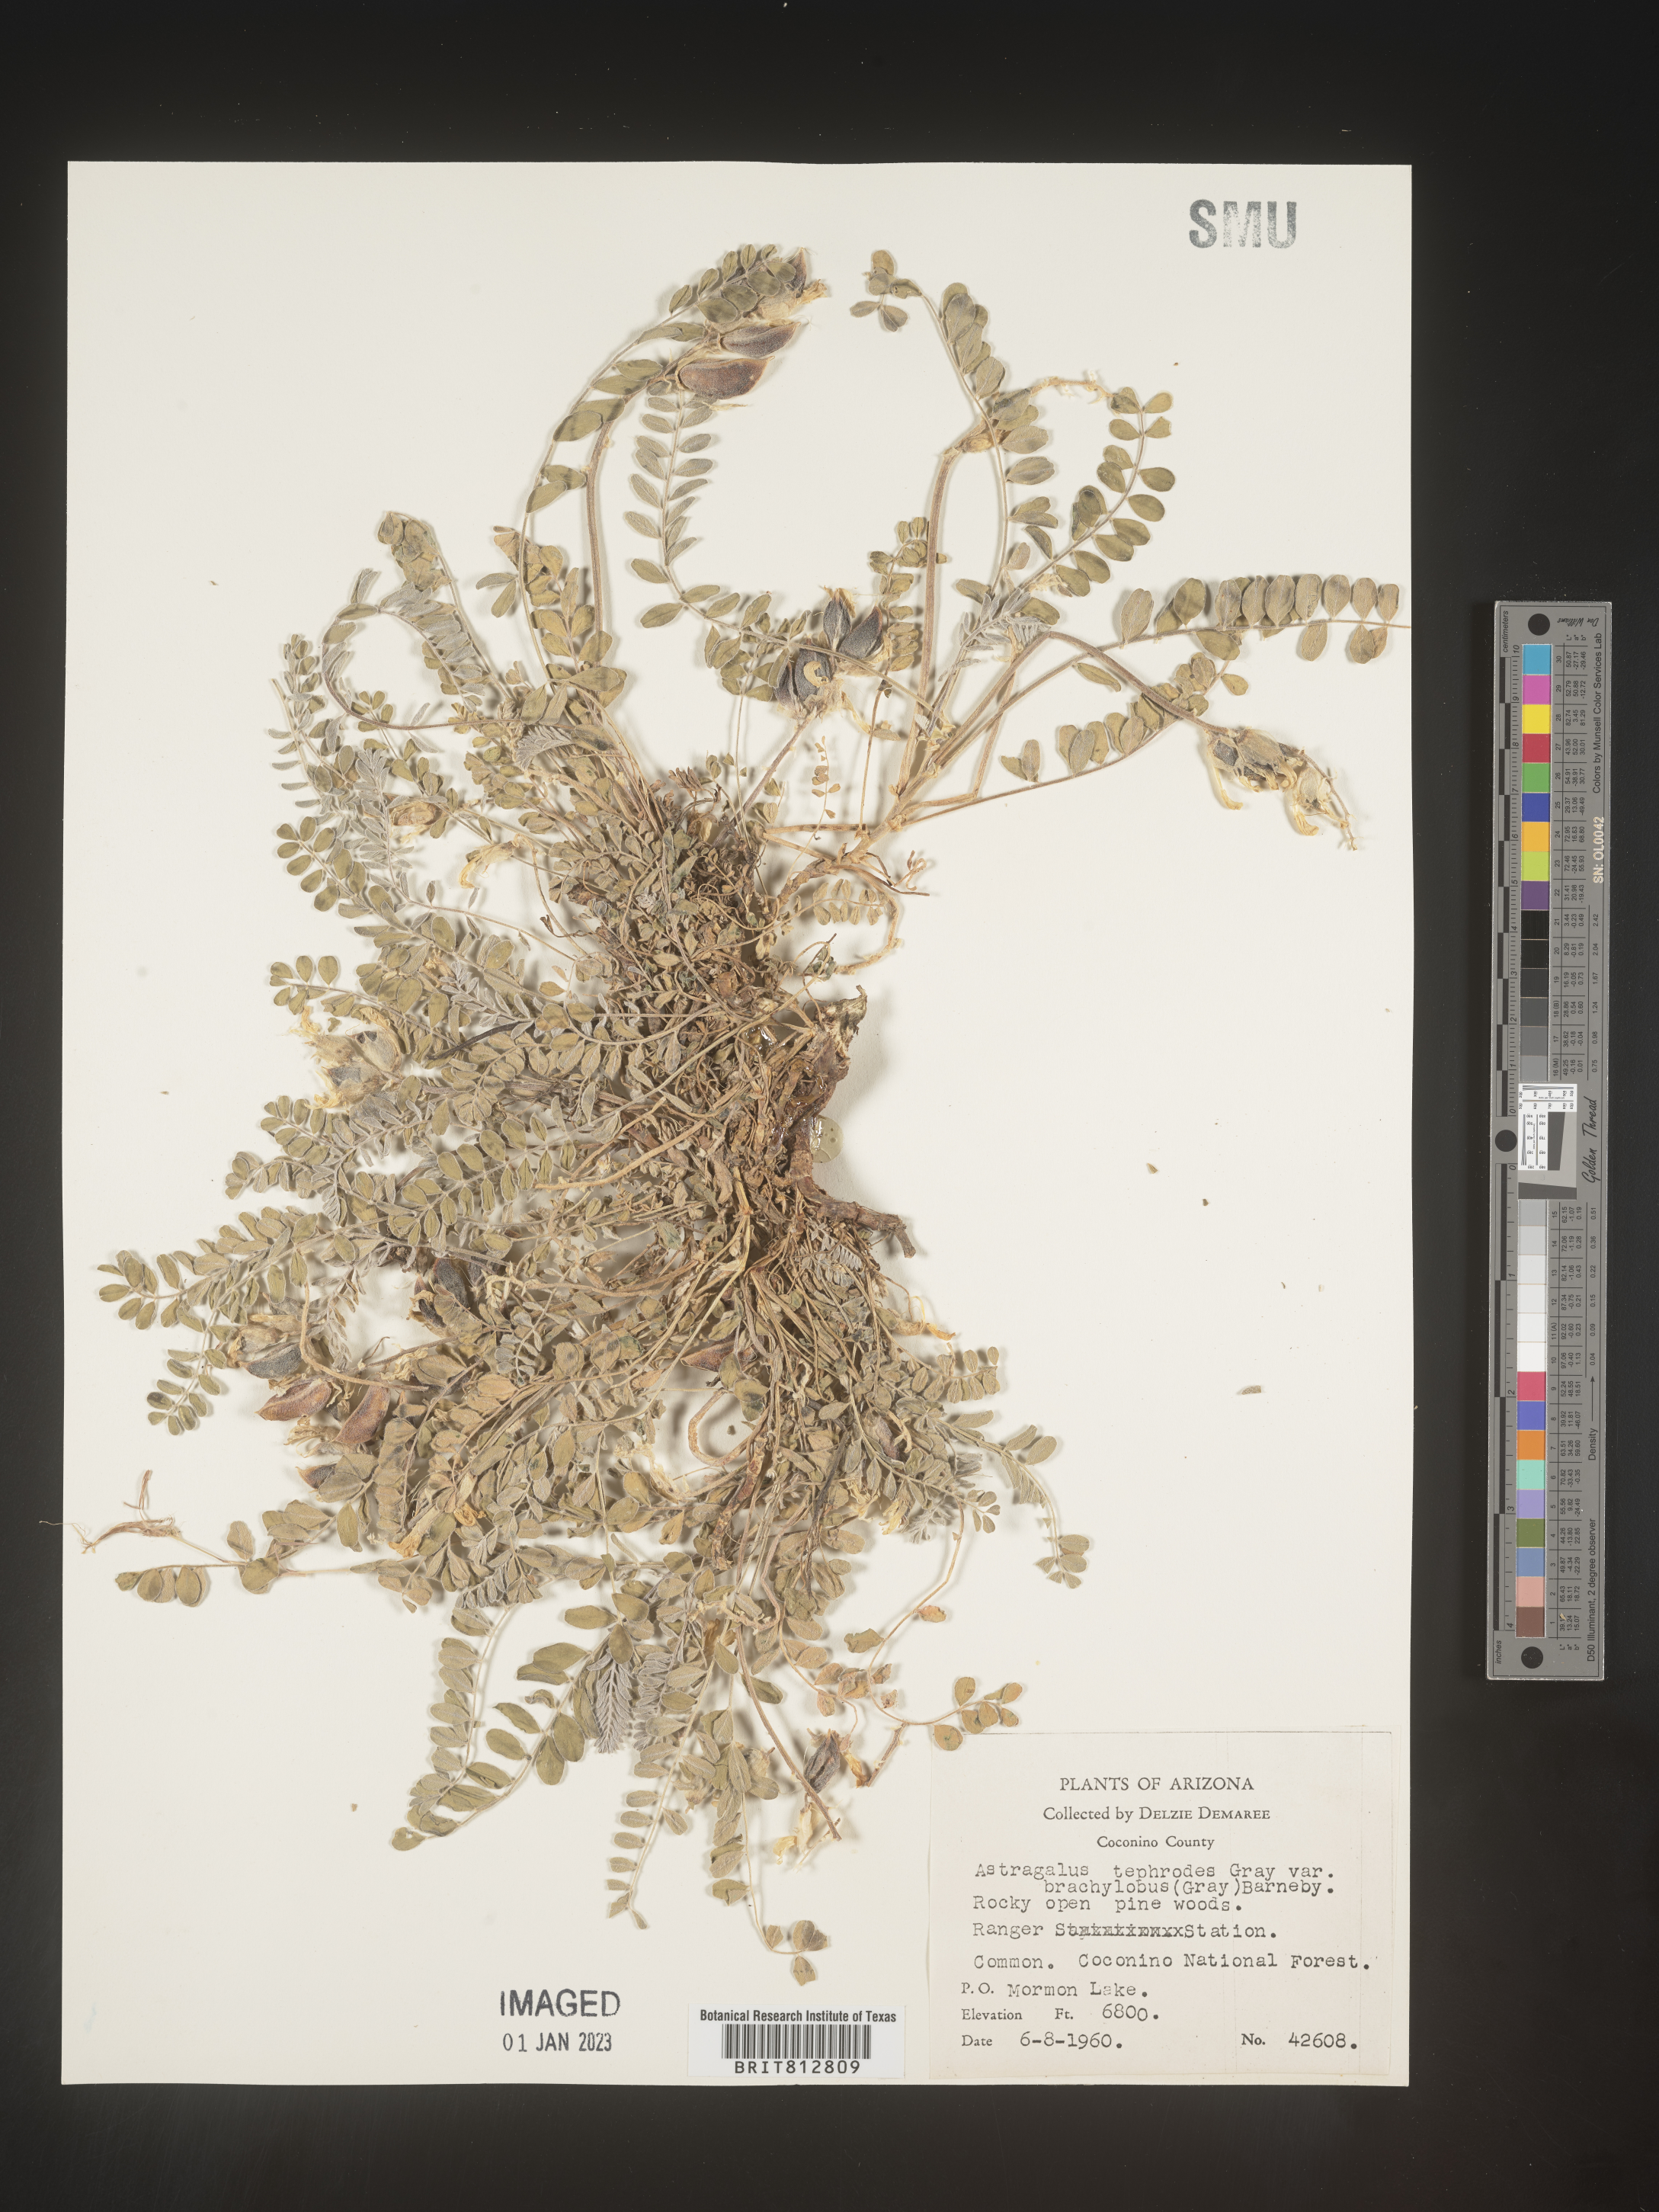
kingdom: Plantae
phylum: Tracheophyta
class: Magnoliopsida
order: Fabales
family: Fabaceae
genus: Astragalus
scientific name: Astragalus
